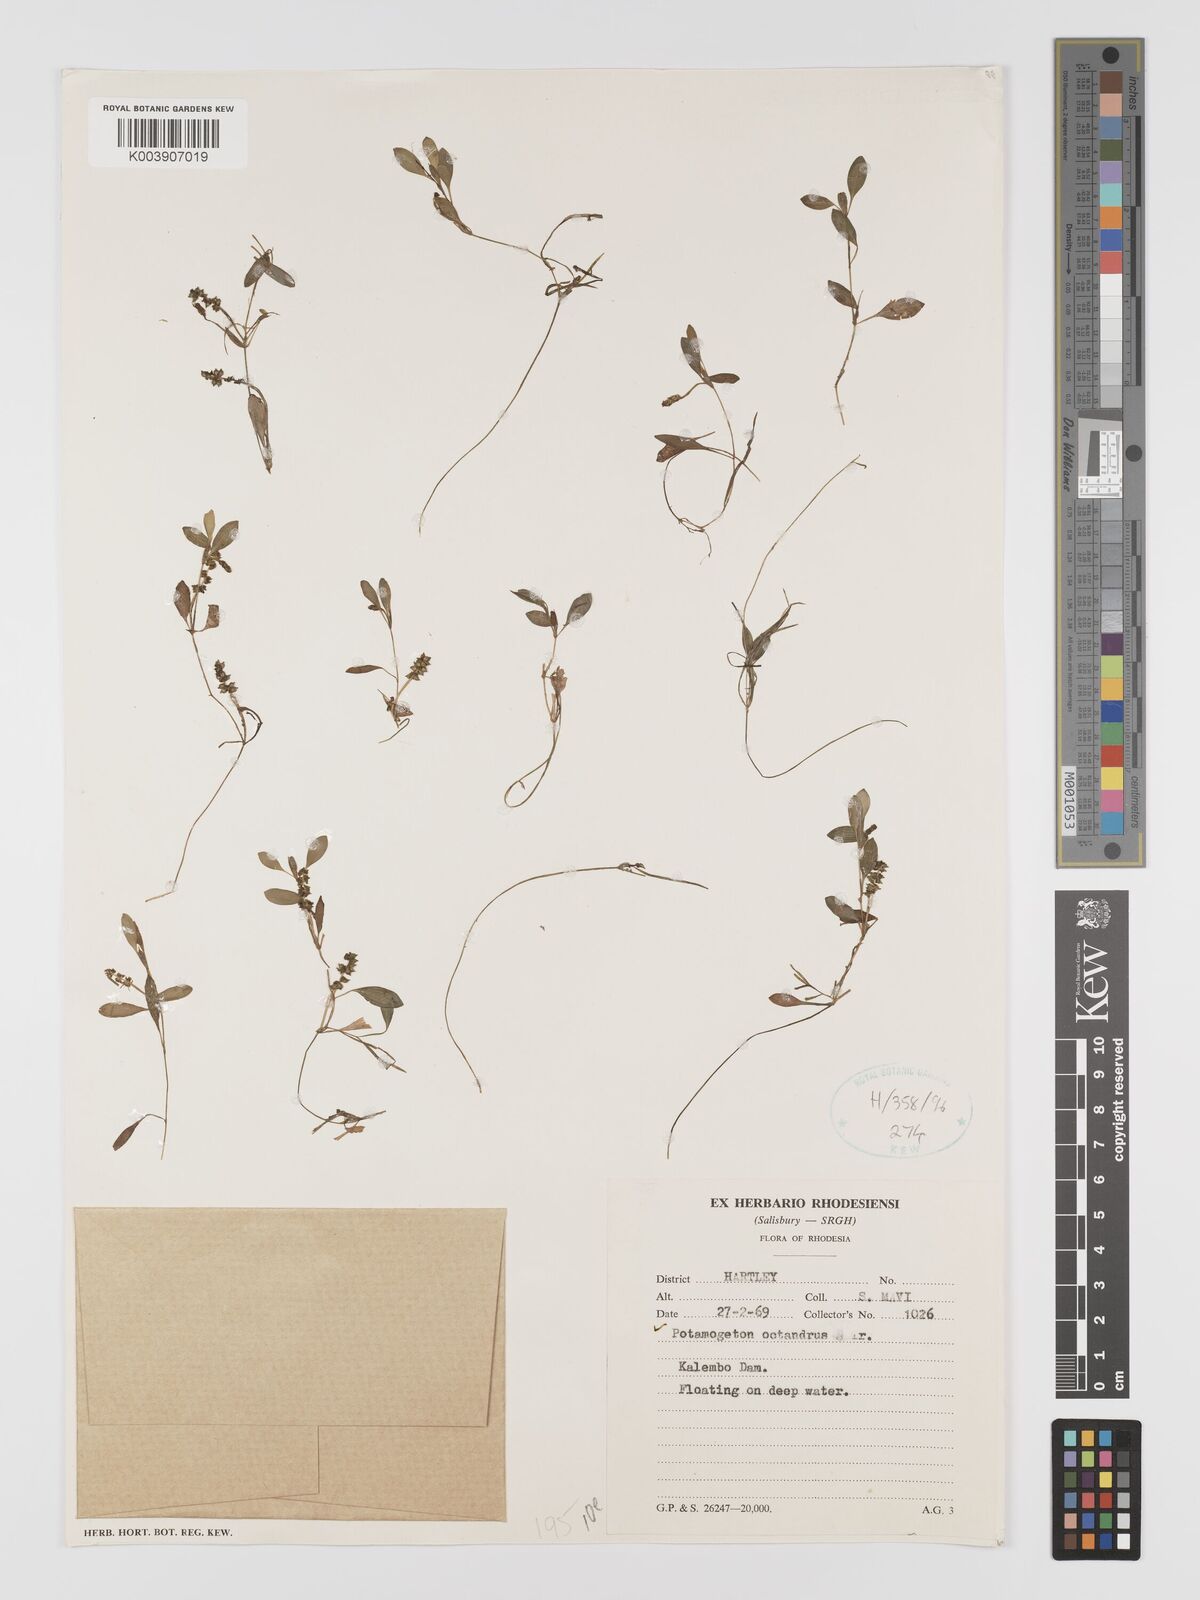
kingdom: Plantae
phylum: Tracheophyta
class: Liliopsida
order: Alismatales
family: Potamogetonaceae
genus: Potamogeton
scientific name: Potamogeton octandrus
